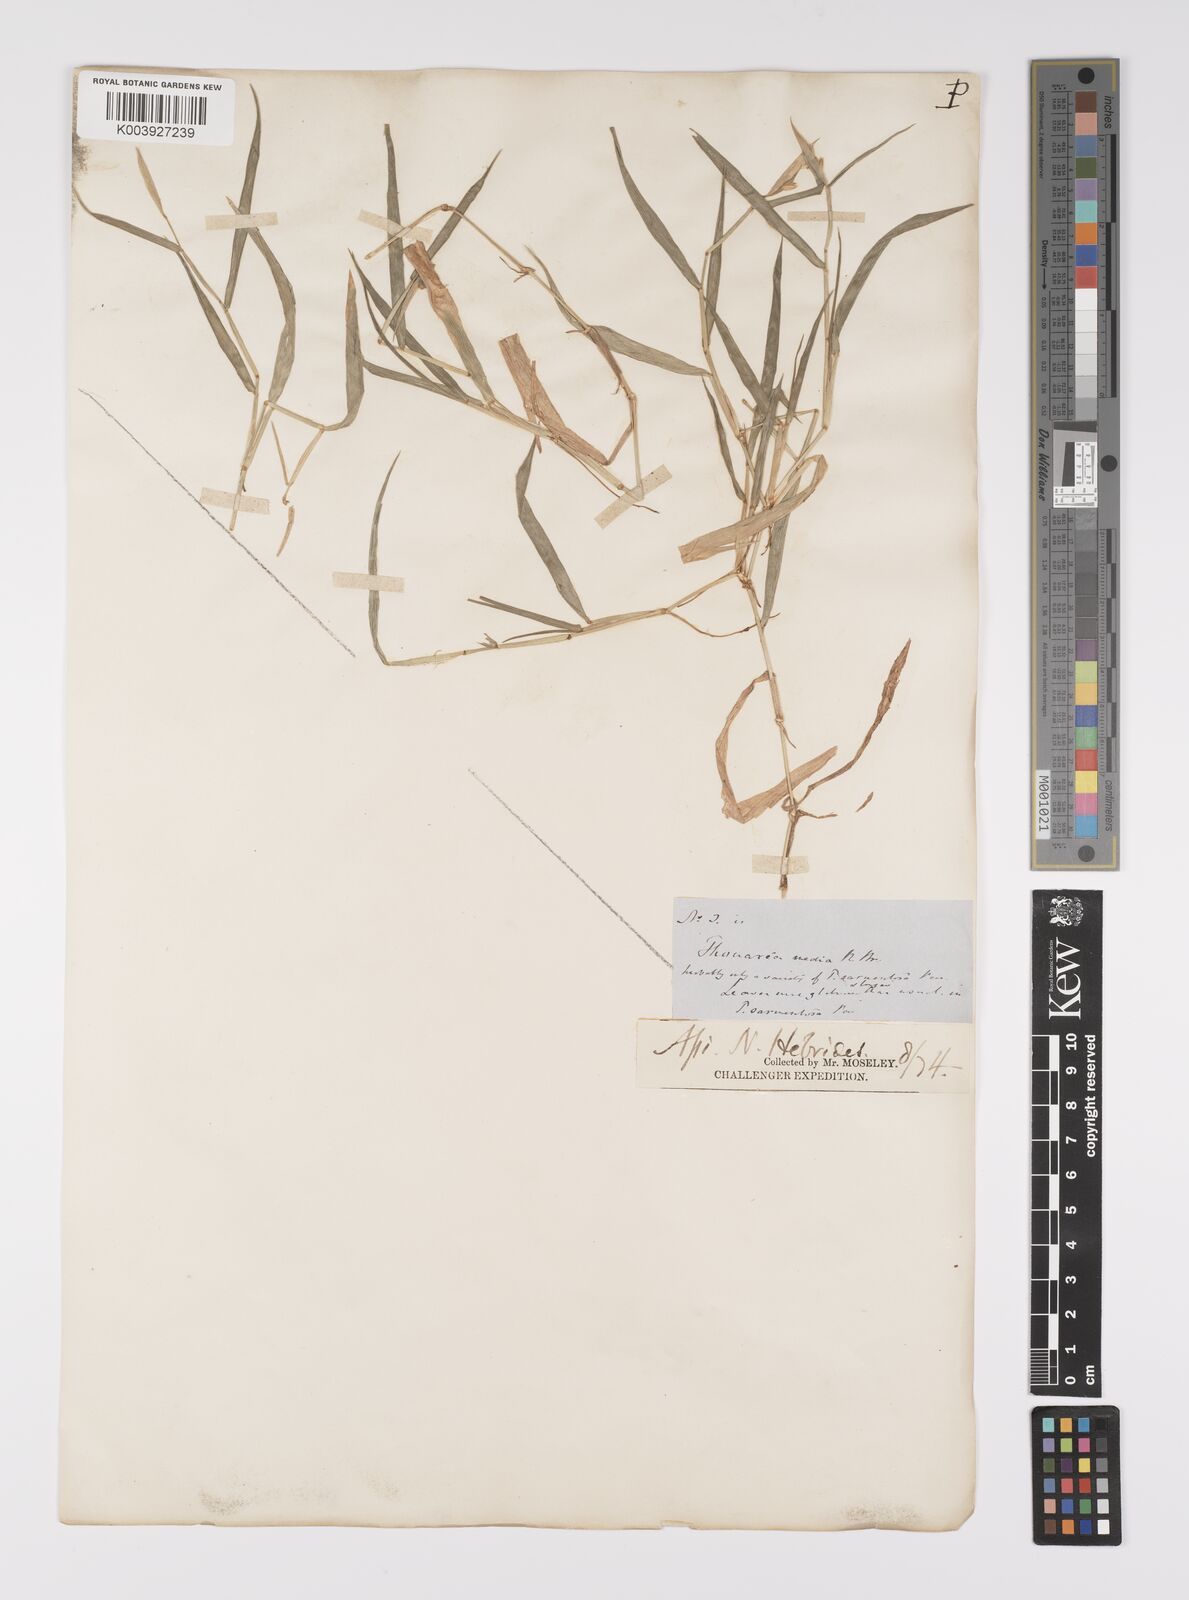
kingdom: Plantae
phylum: Tracheophyta
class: Liliopsida
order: Poales
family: Poaceae
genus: Thuarea
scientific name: Thuarea involuta
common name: Tropical beach grass
